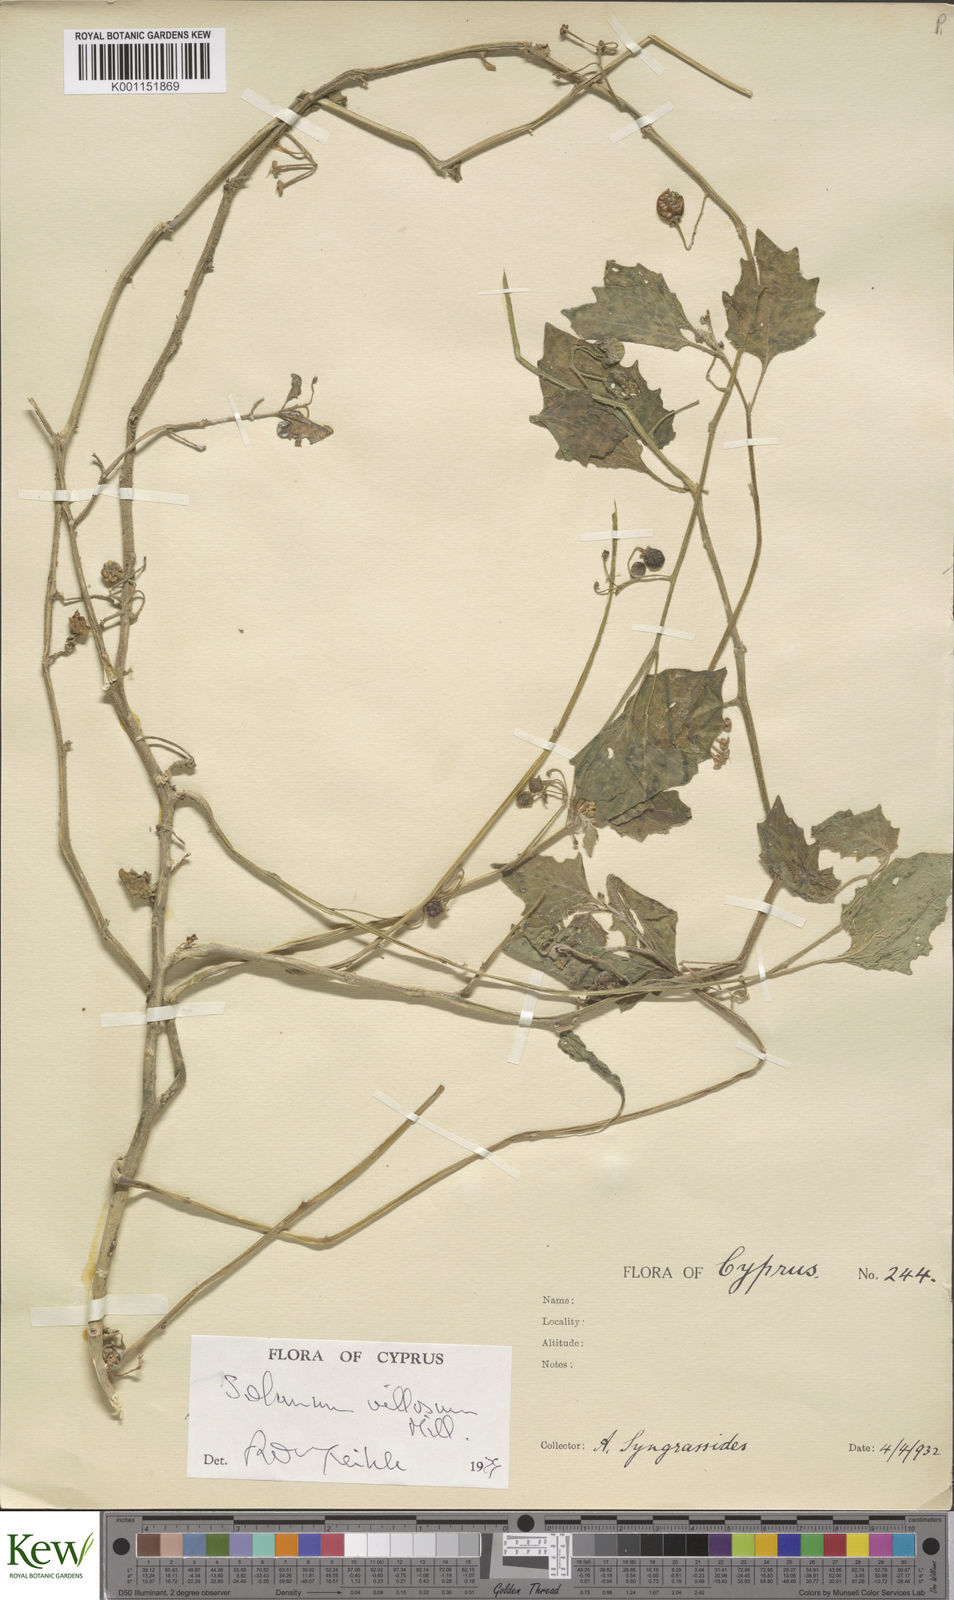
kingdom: Plantae
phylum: Tracheophyta
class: Magnoliopsida
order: Solanales
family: Solanaceae
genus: Solanum
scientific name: Solanum villosum
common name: Red nightshade
